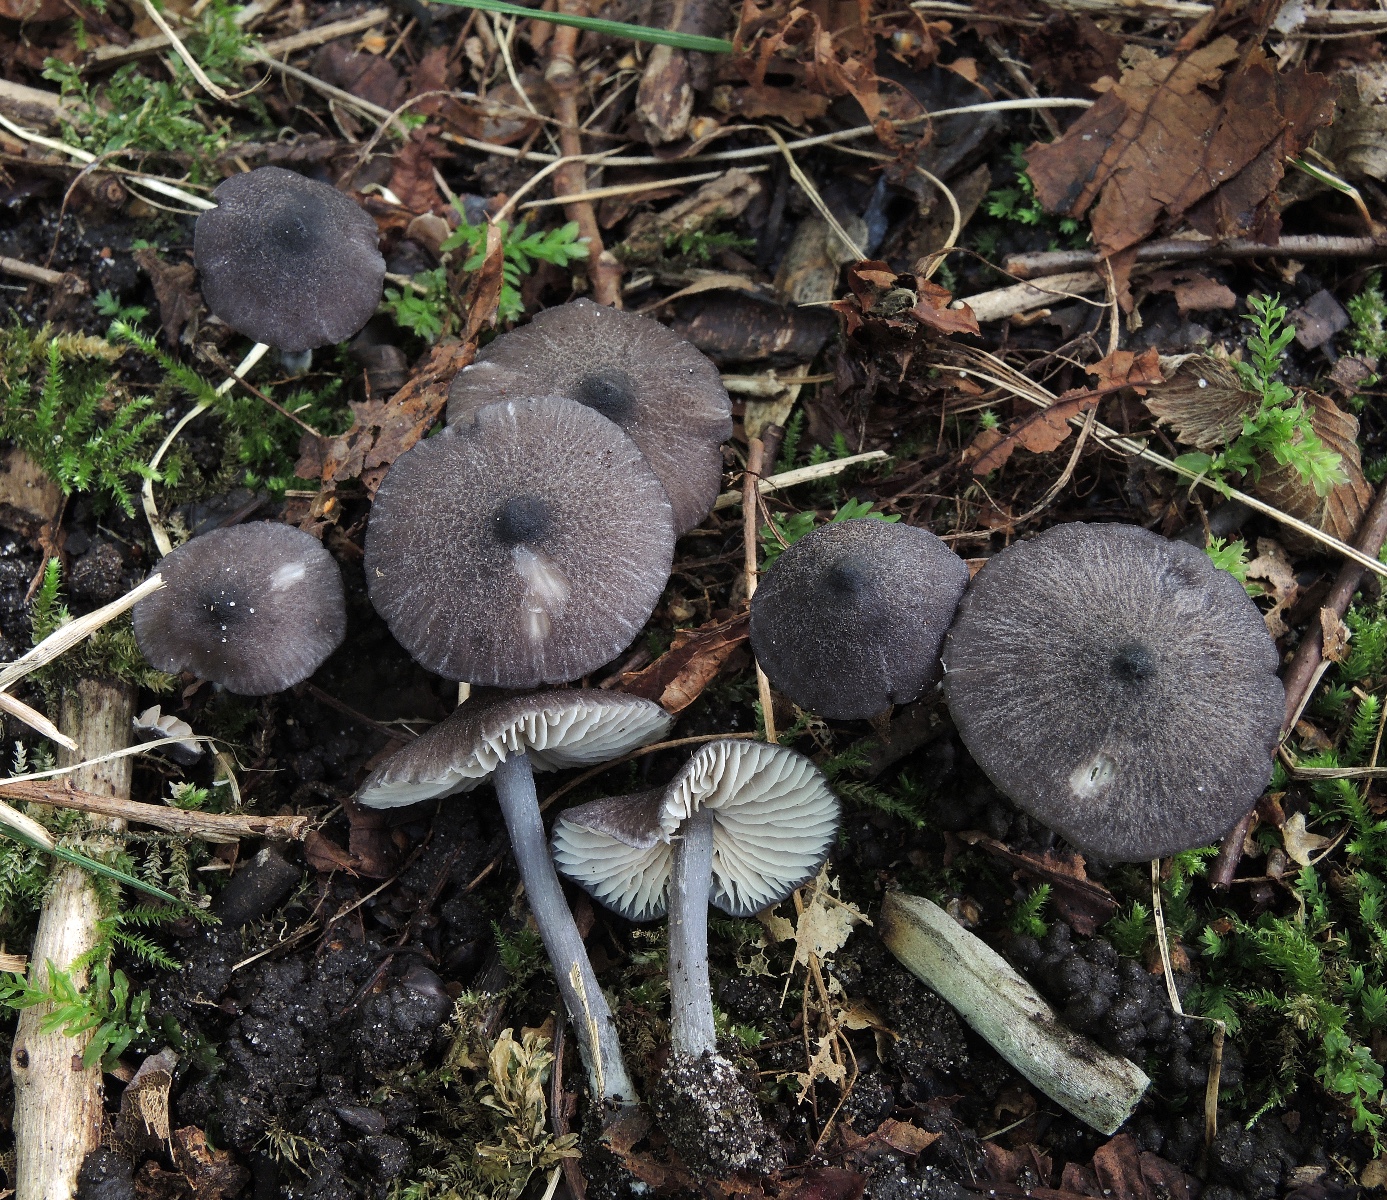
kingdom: Fungi
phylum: Basidiomycota
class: Agaricomycetes
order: Agaricales
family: Entolomataceae
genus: Entoloma
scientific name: Entoloma phaeodiscum
